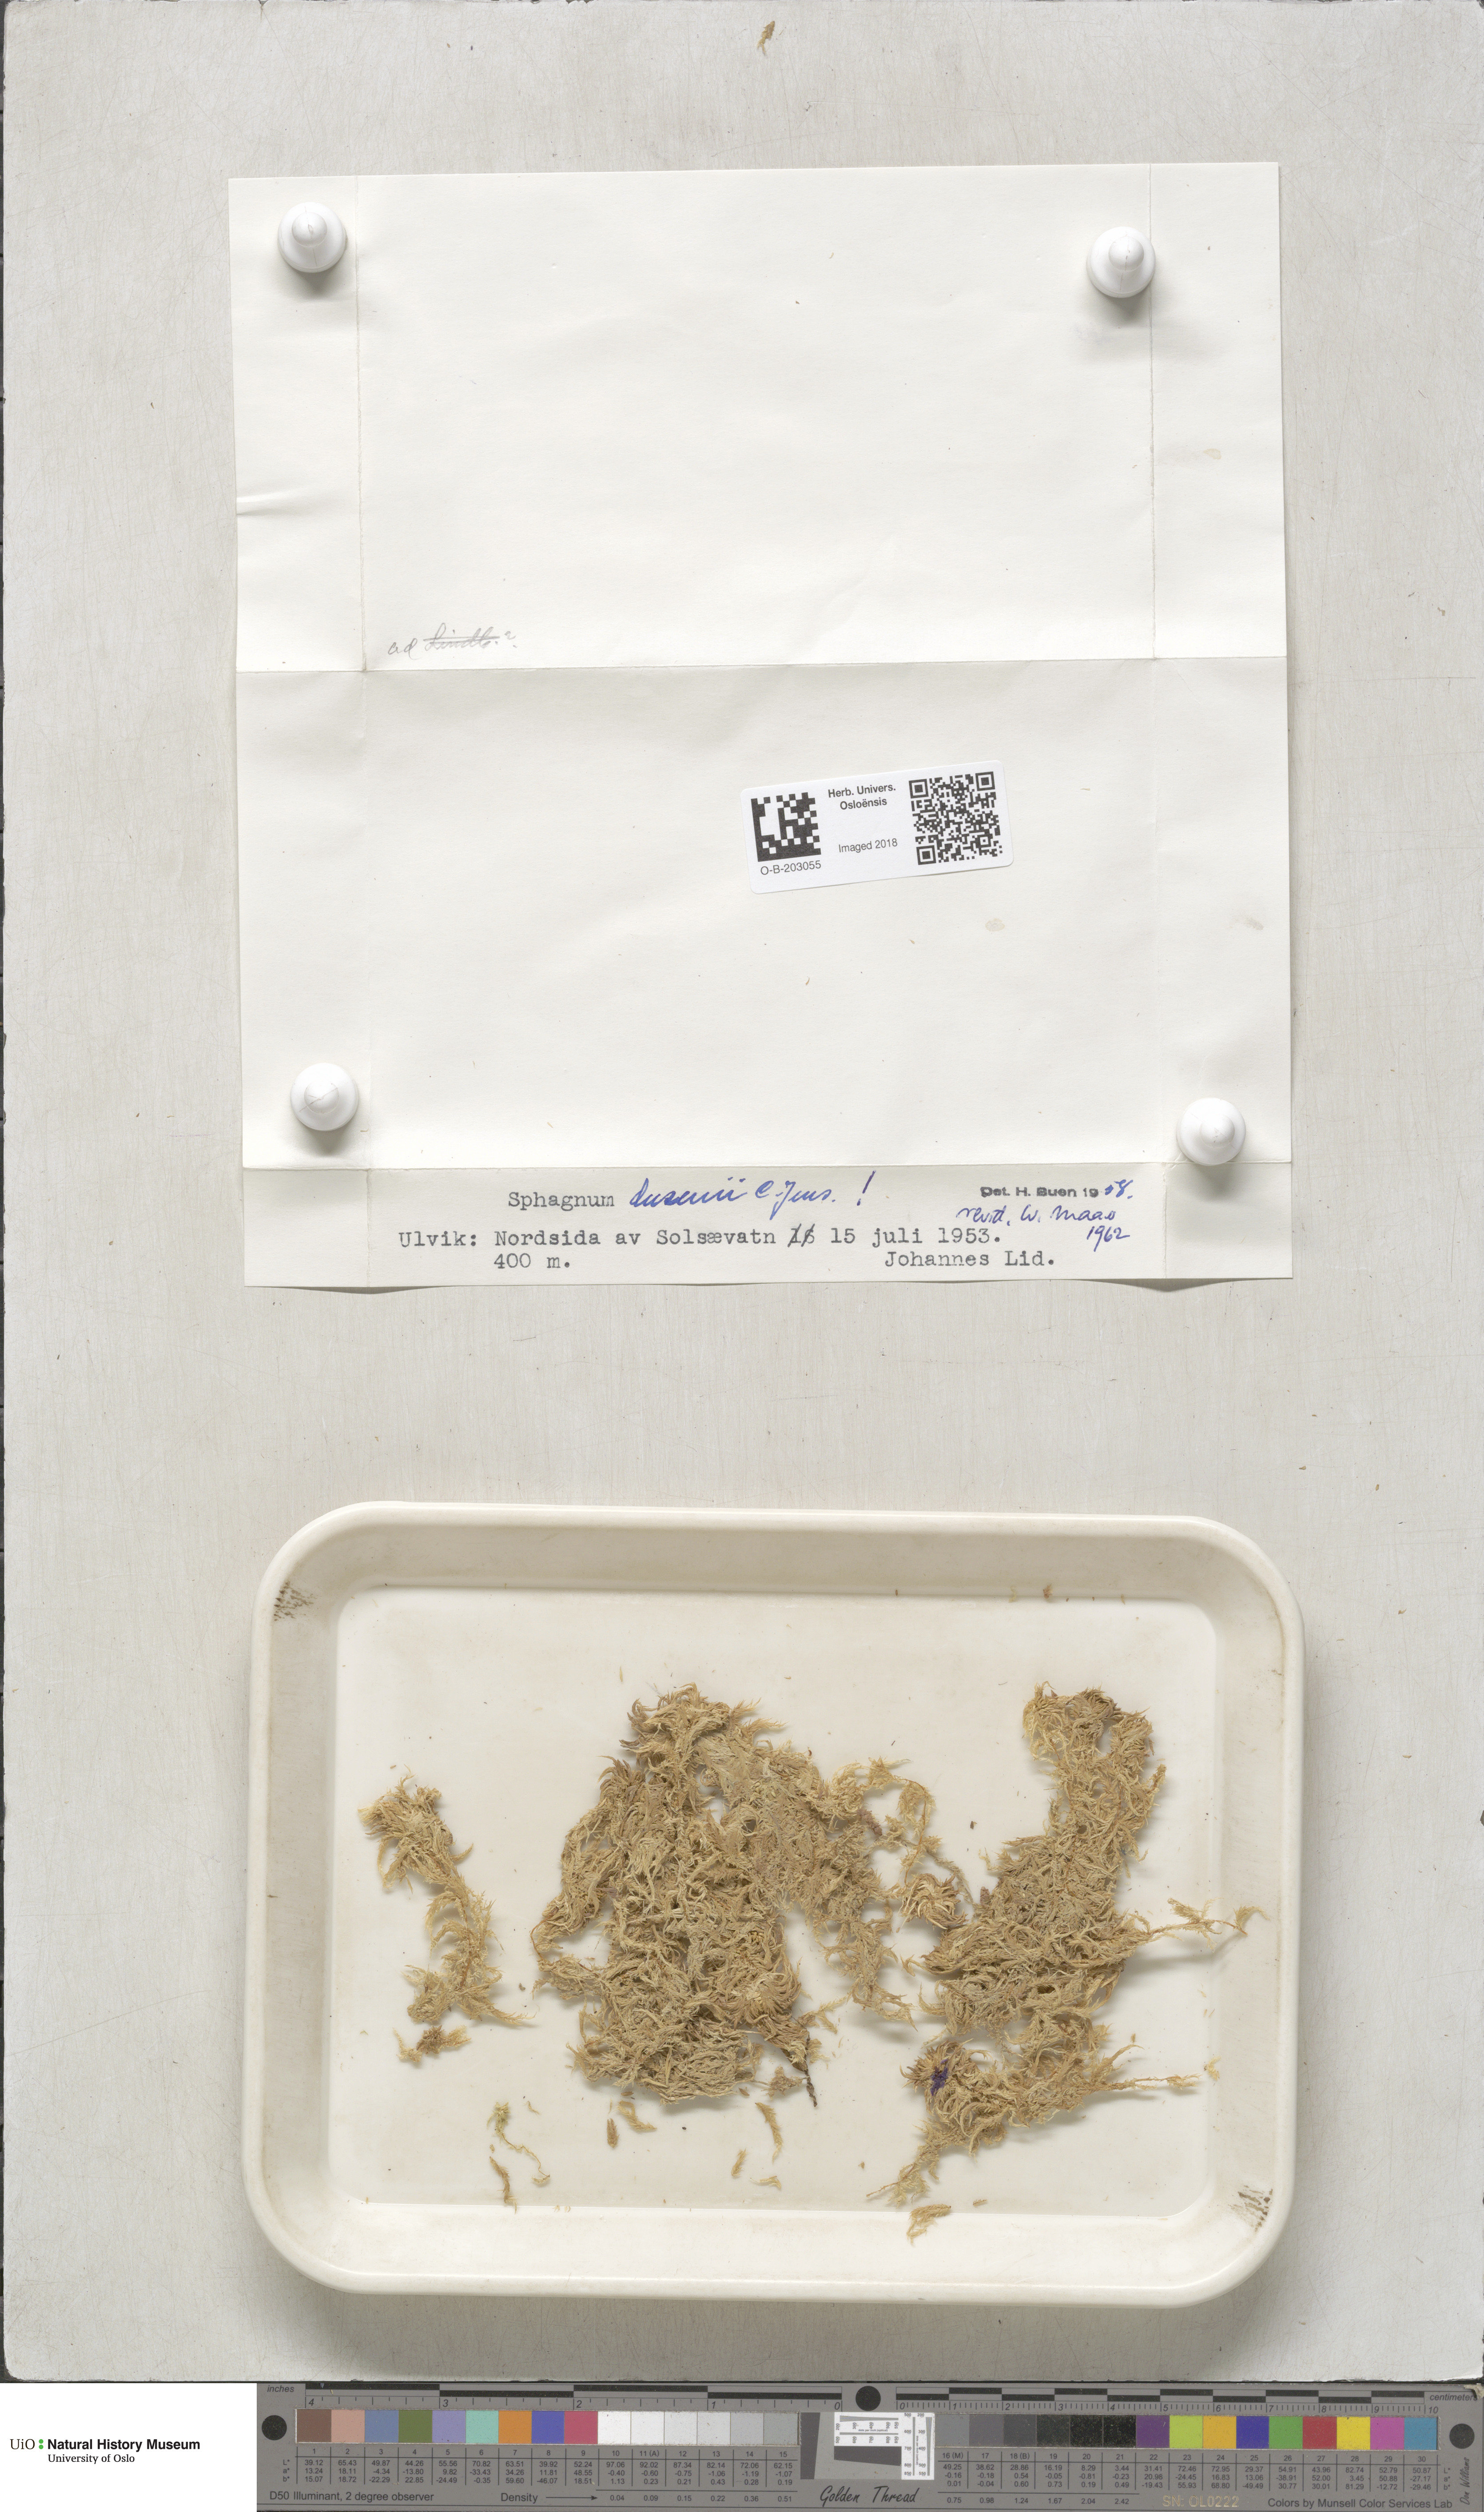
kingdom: Plantae
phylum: Bryophyta
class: Sphagnopsida
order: Sphagnales
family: Sphagnaceae
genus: Sphagnum
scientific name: Sphagnum majus
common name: Olive bog-moss
